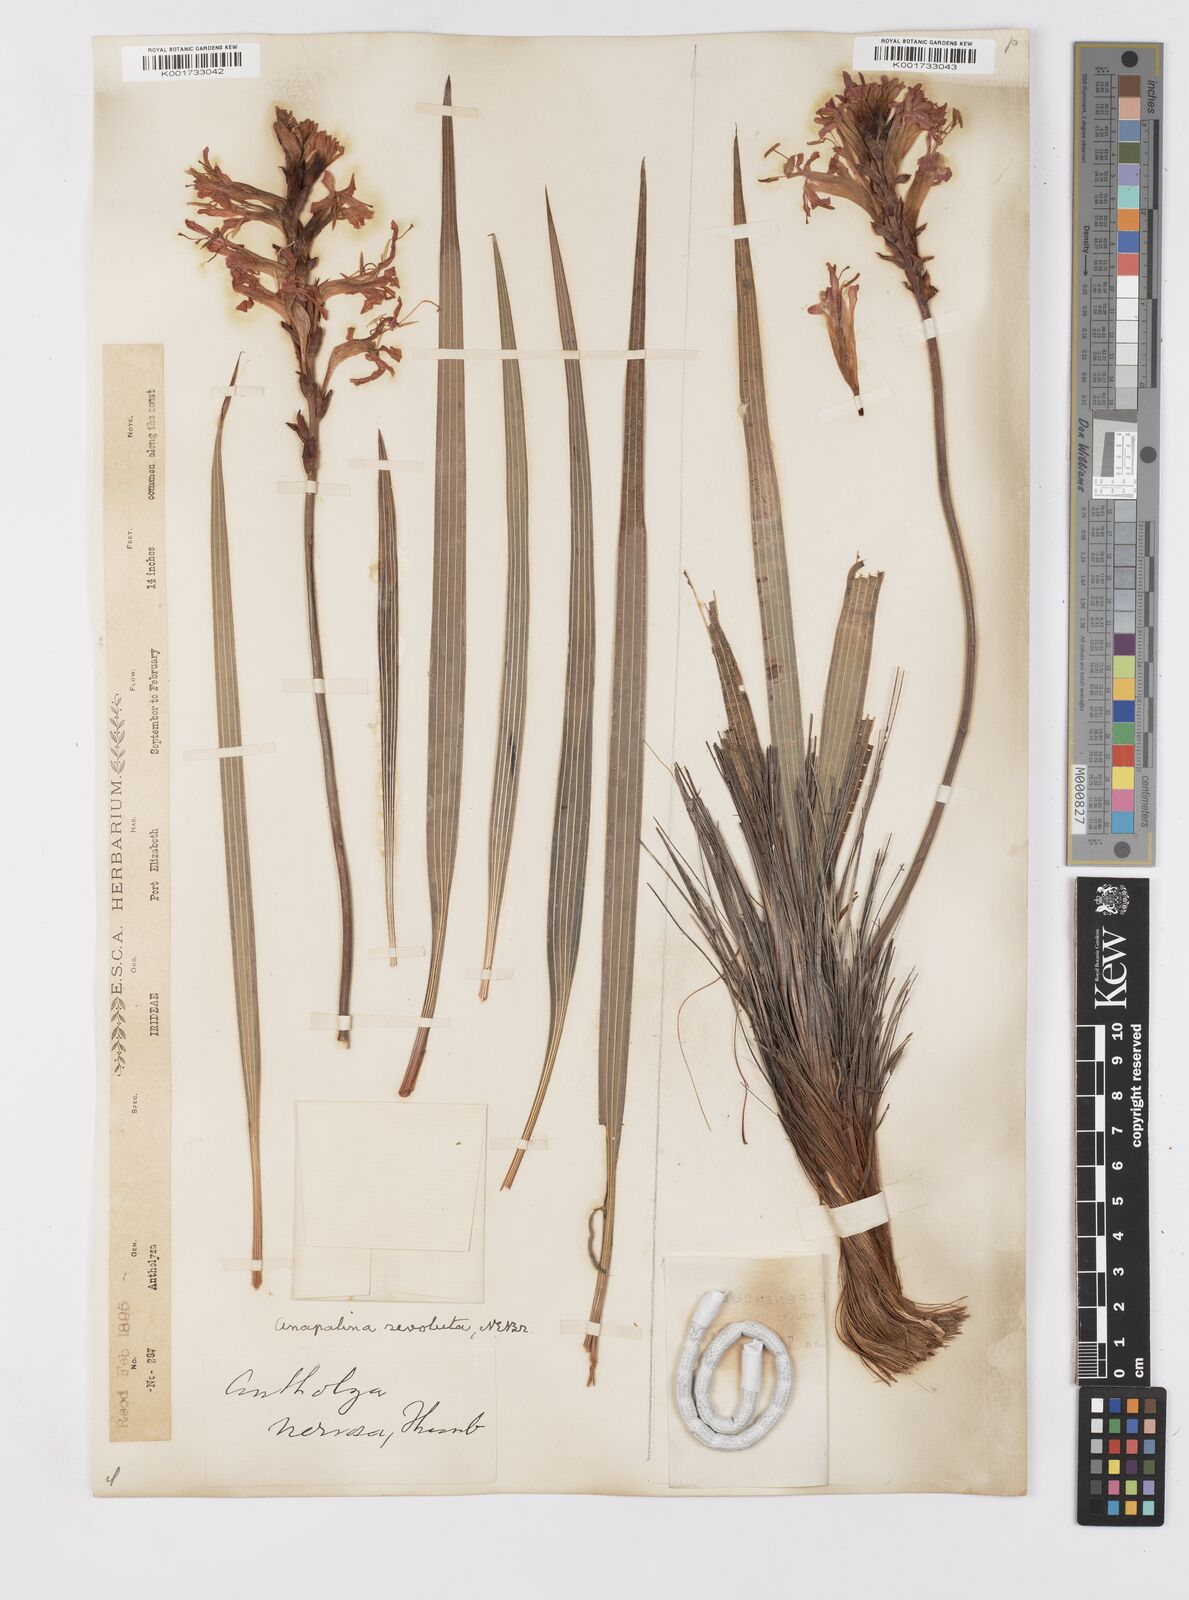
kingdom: Plantae
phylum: Tracheophyta
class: Liliopsida
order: Asparagales
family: Iridaceae
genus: Tritoniopsis
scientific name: Tritoniopsis nervosa
